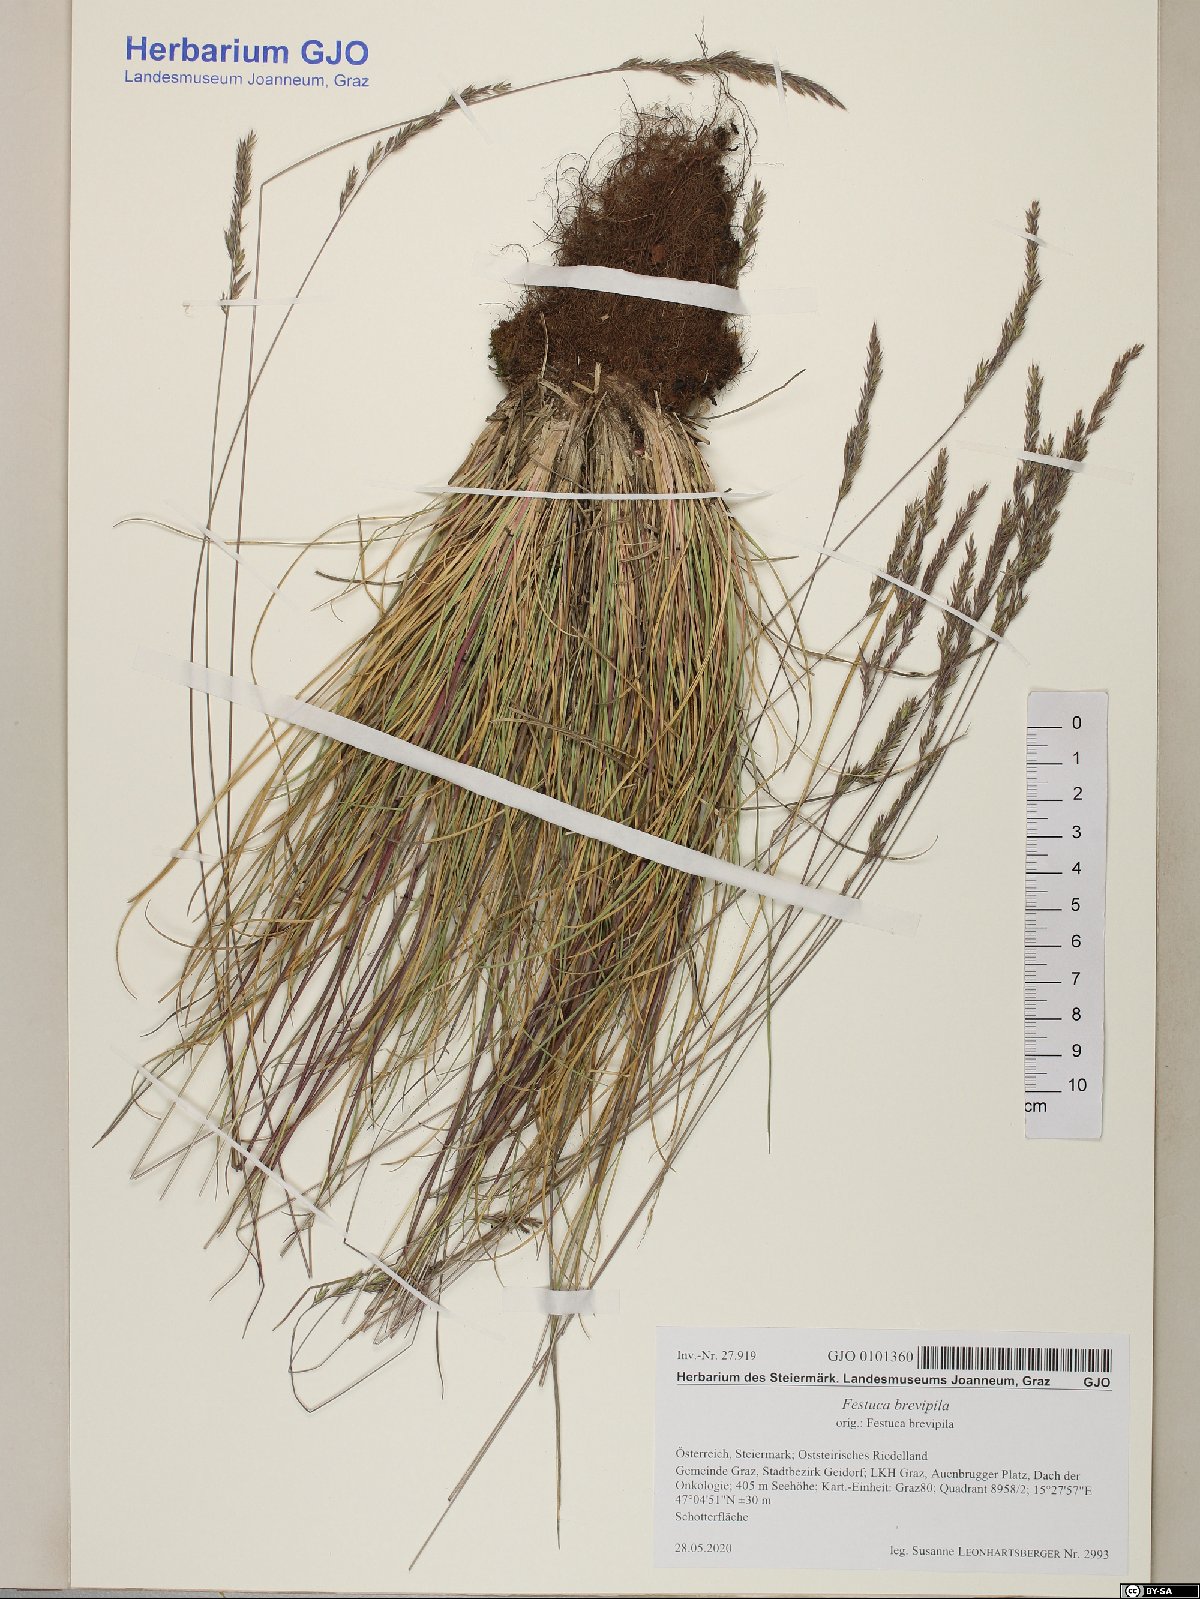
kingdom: Plantae
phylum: Tracheophyta
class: Liliopsida
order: Poales
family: Poaceae
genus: Festuca
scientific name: Festuca trachyphylla
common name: Hard fescue
